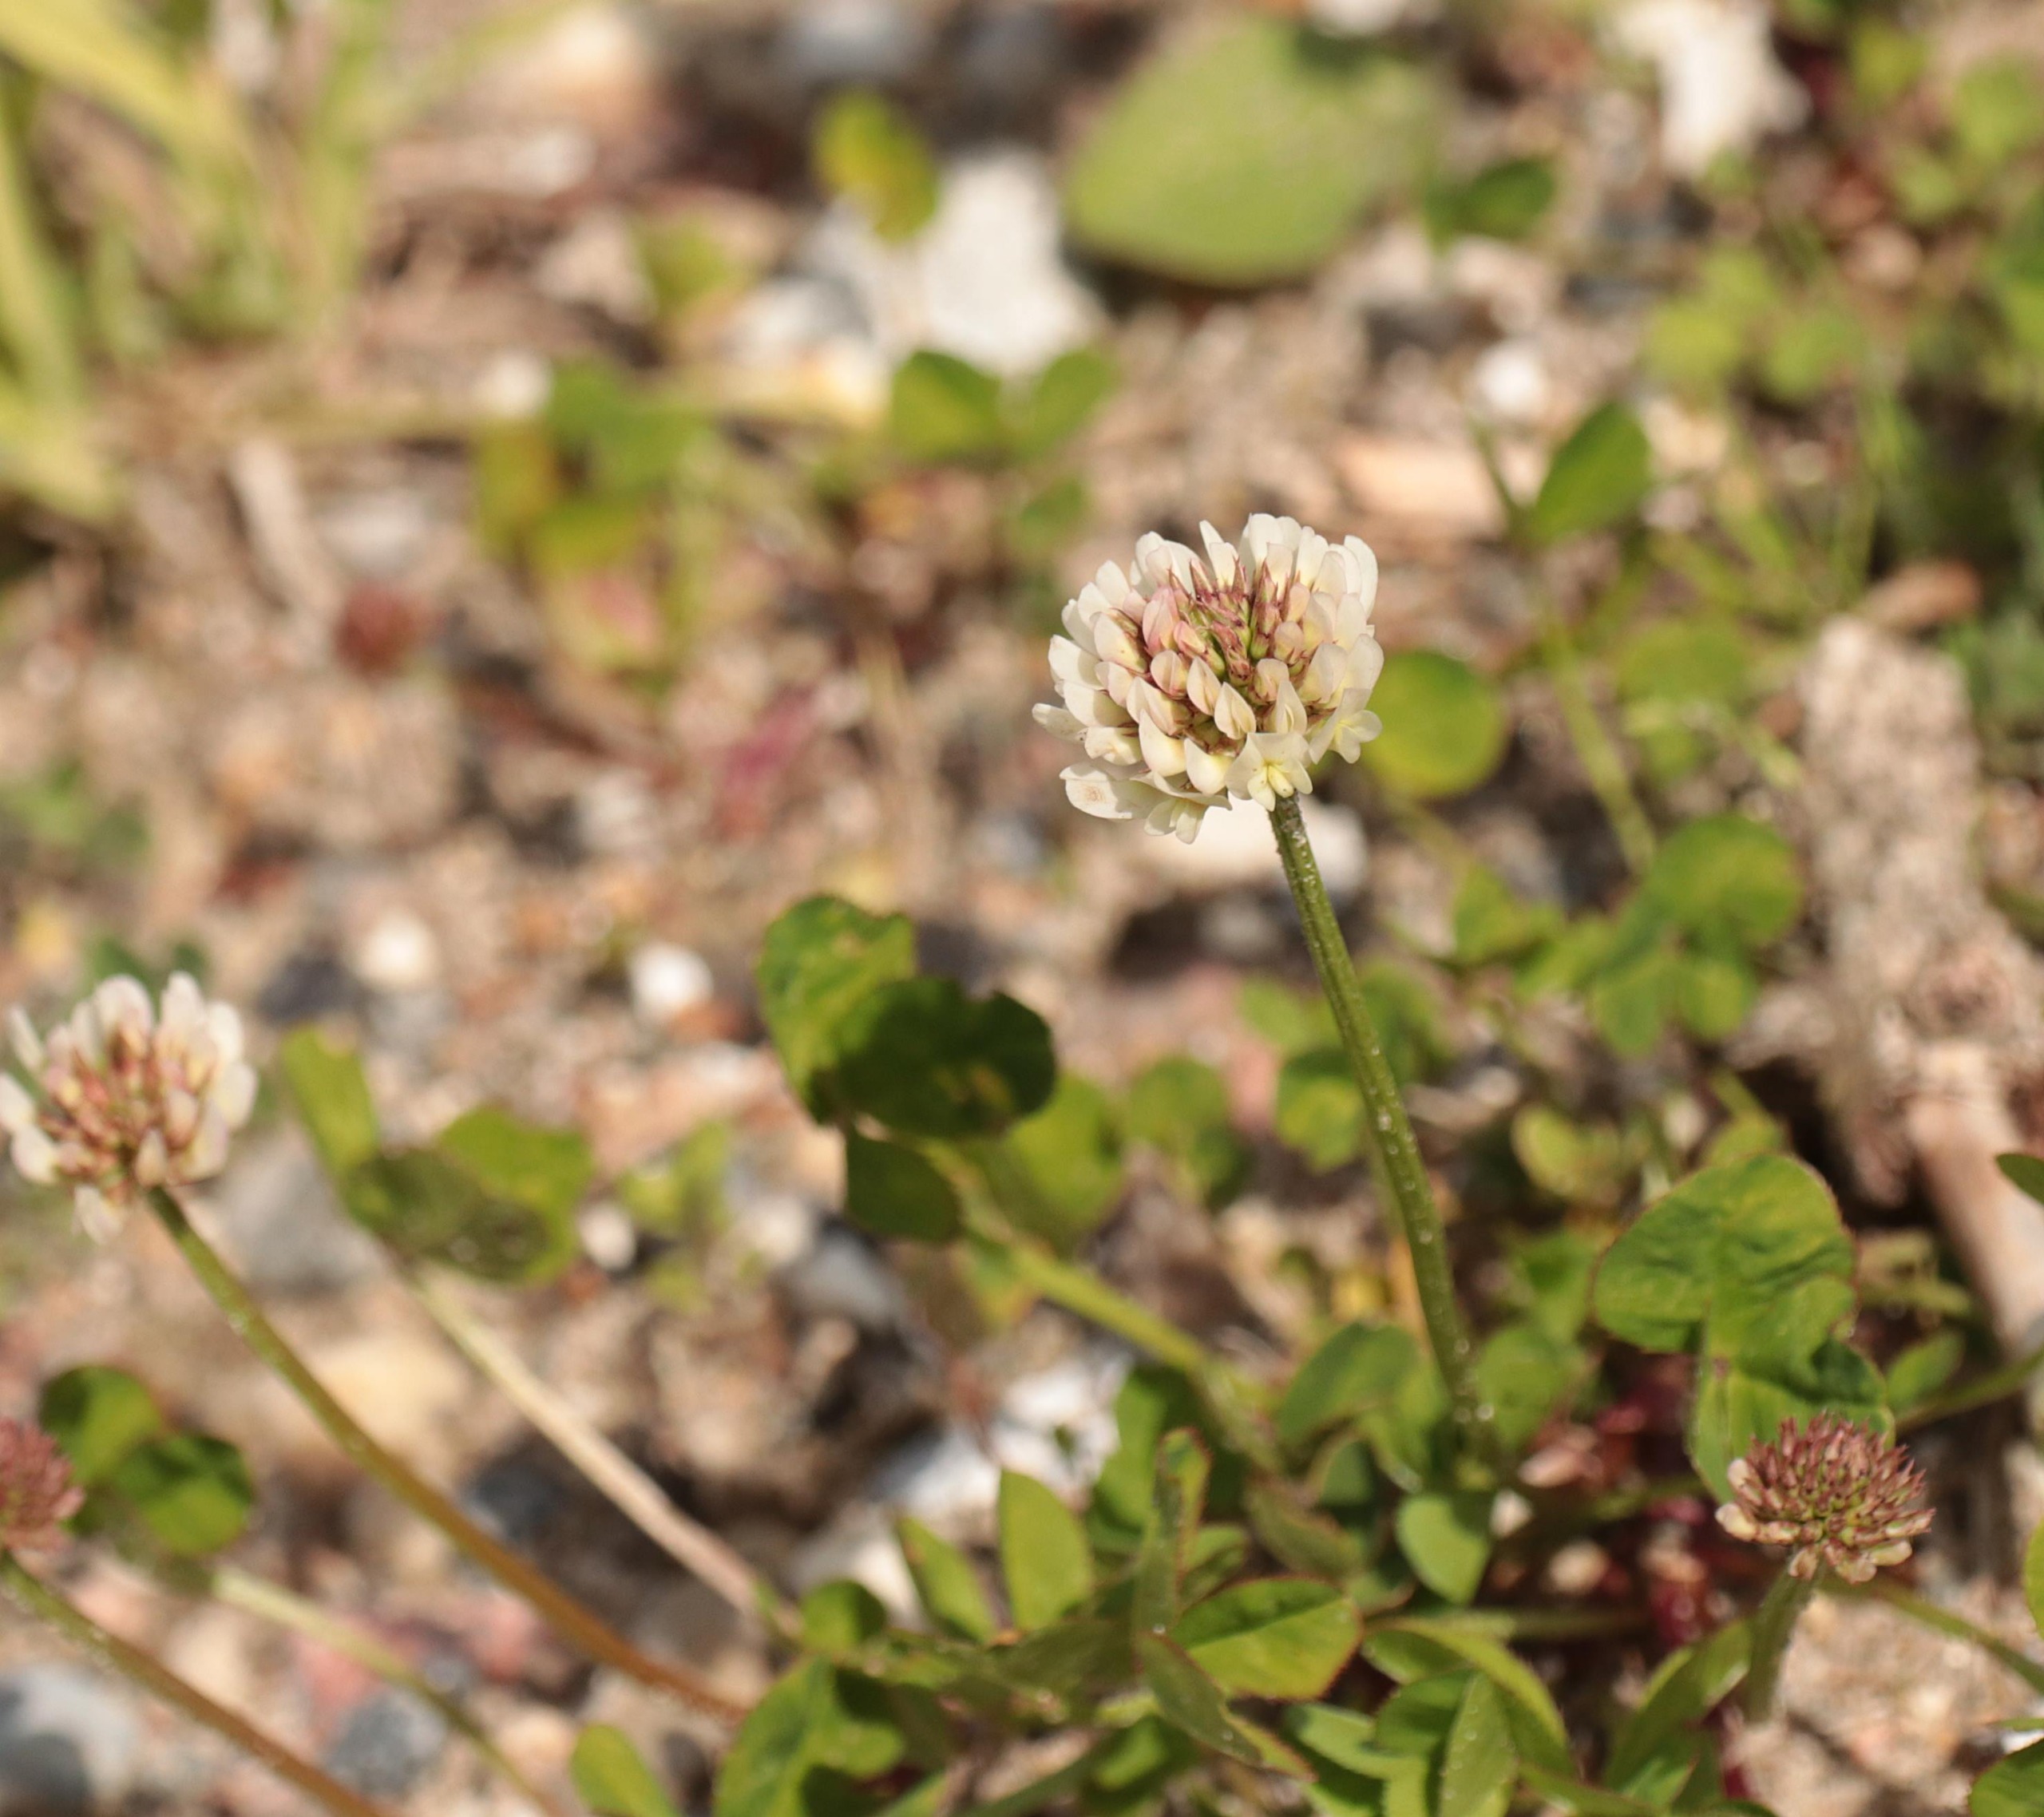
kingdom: Plantae
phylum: Tracheophyta
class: Magnoliopsida
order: Fabales
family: Fabaceae
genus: Trifolium
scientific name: Trifolium repens
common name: Hvid-kløver
